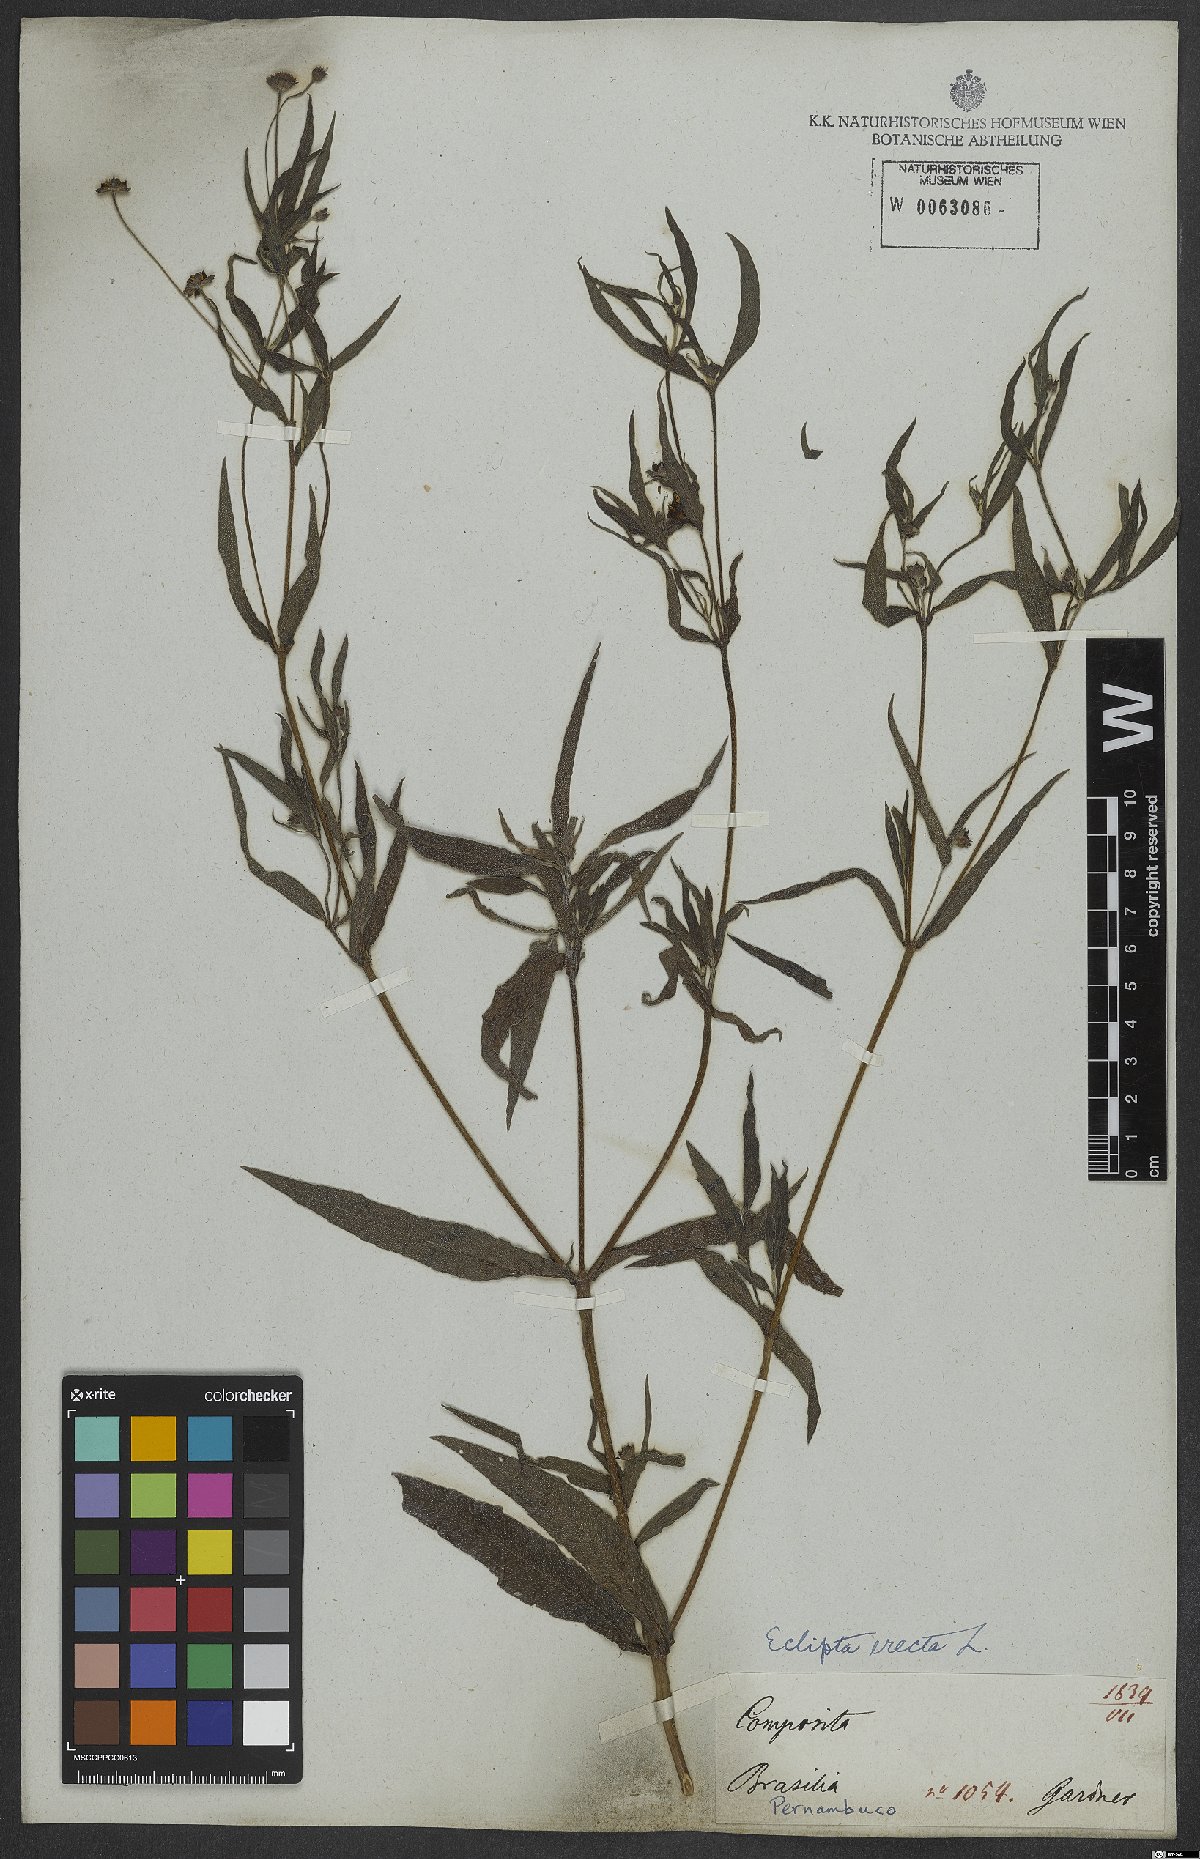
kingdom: Plantae
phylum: Tracheophyta
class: Magnoliopsida
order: Asterales
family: Asteraceae
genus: Eclipta
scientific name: Eclipta alba
